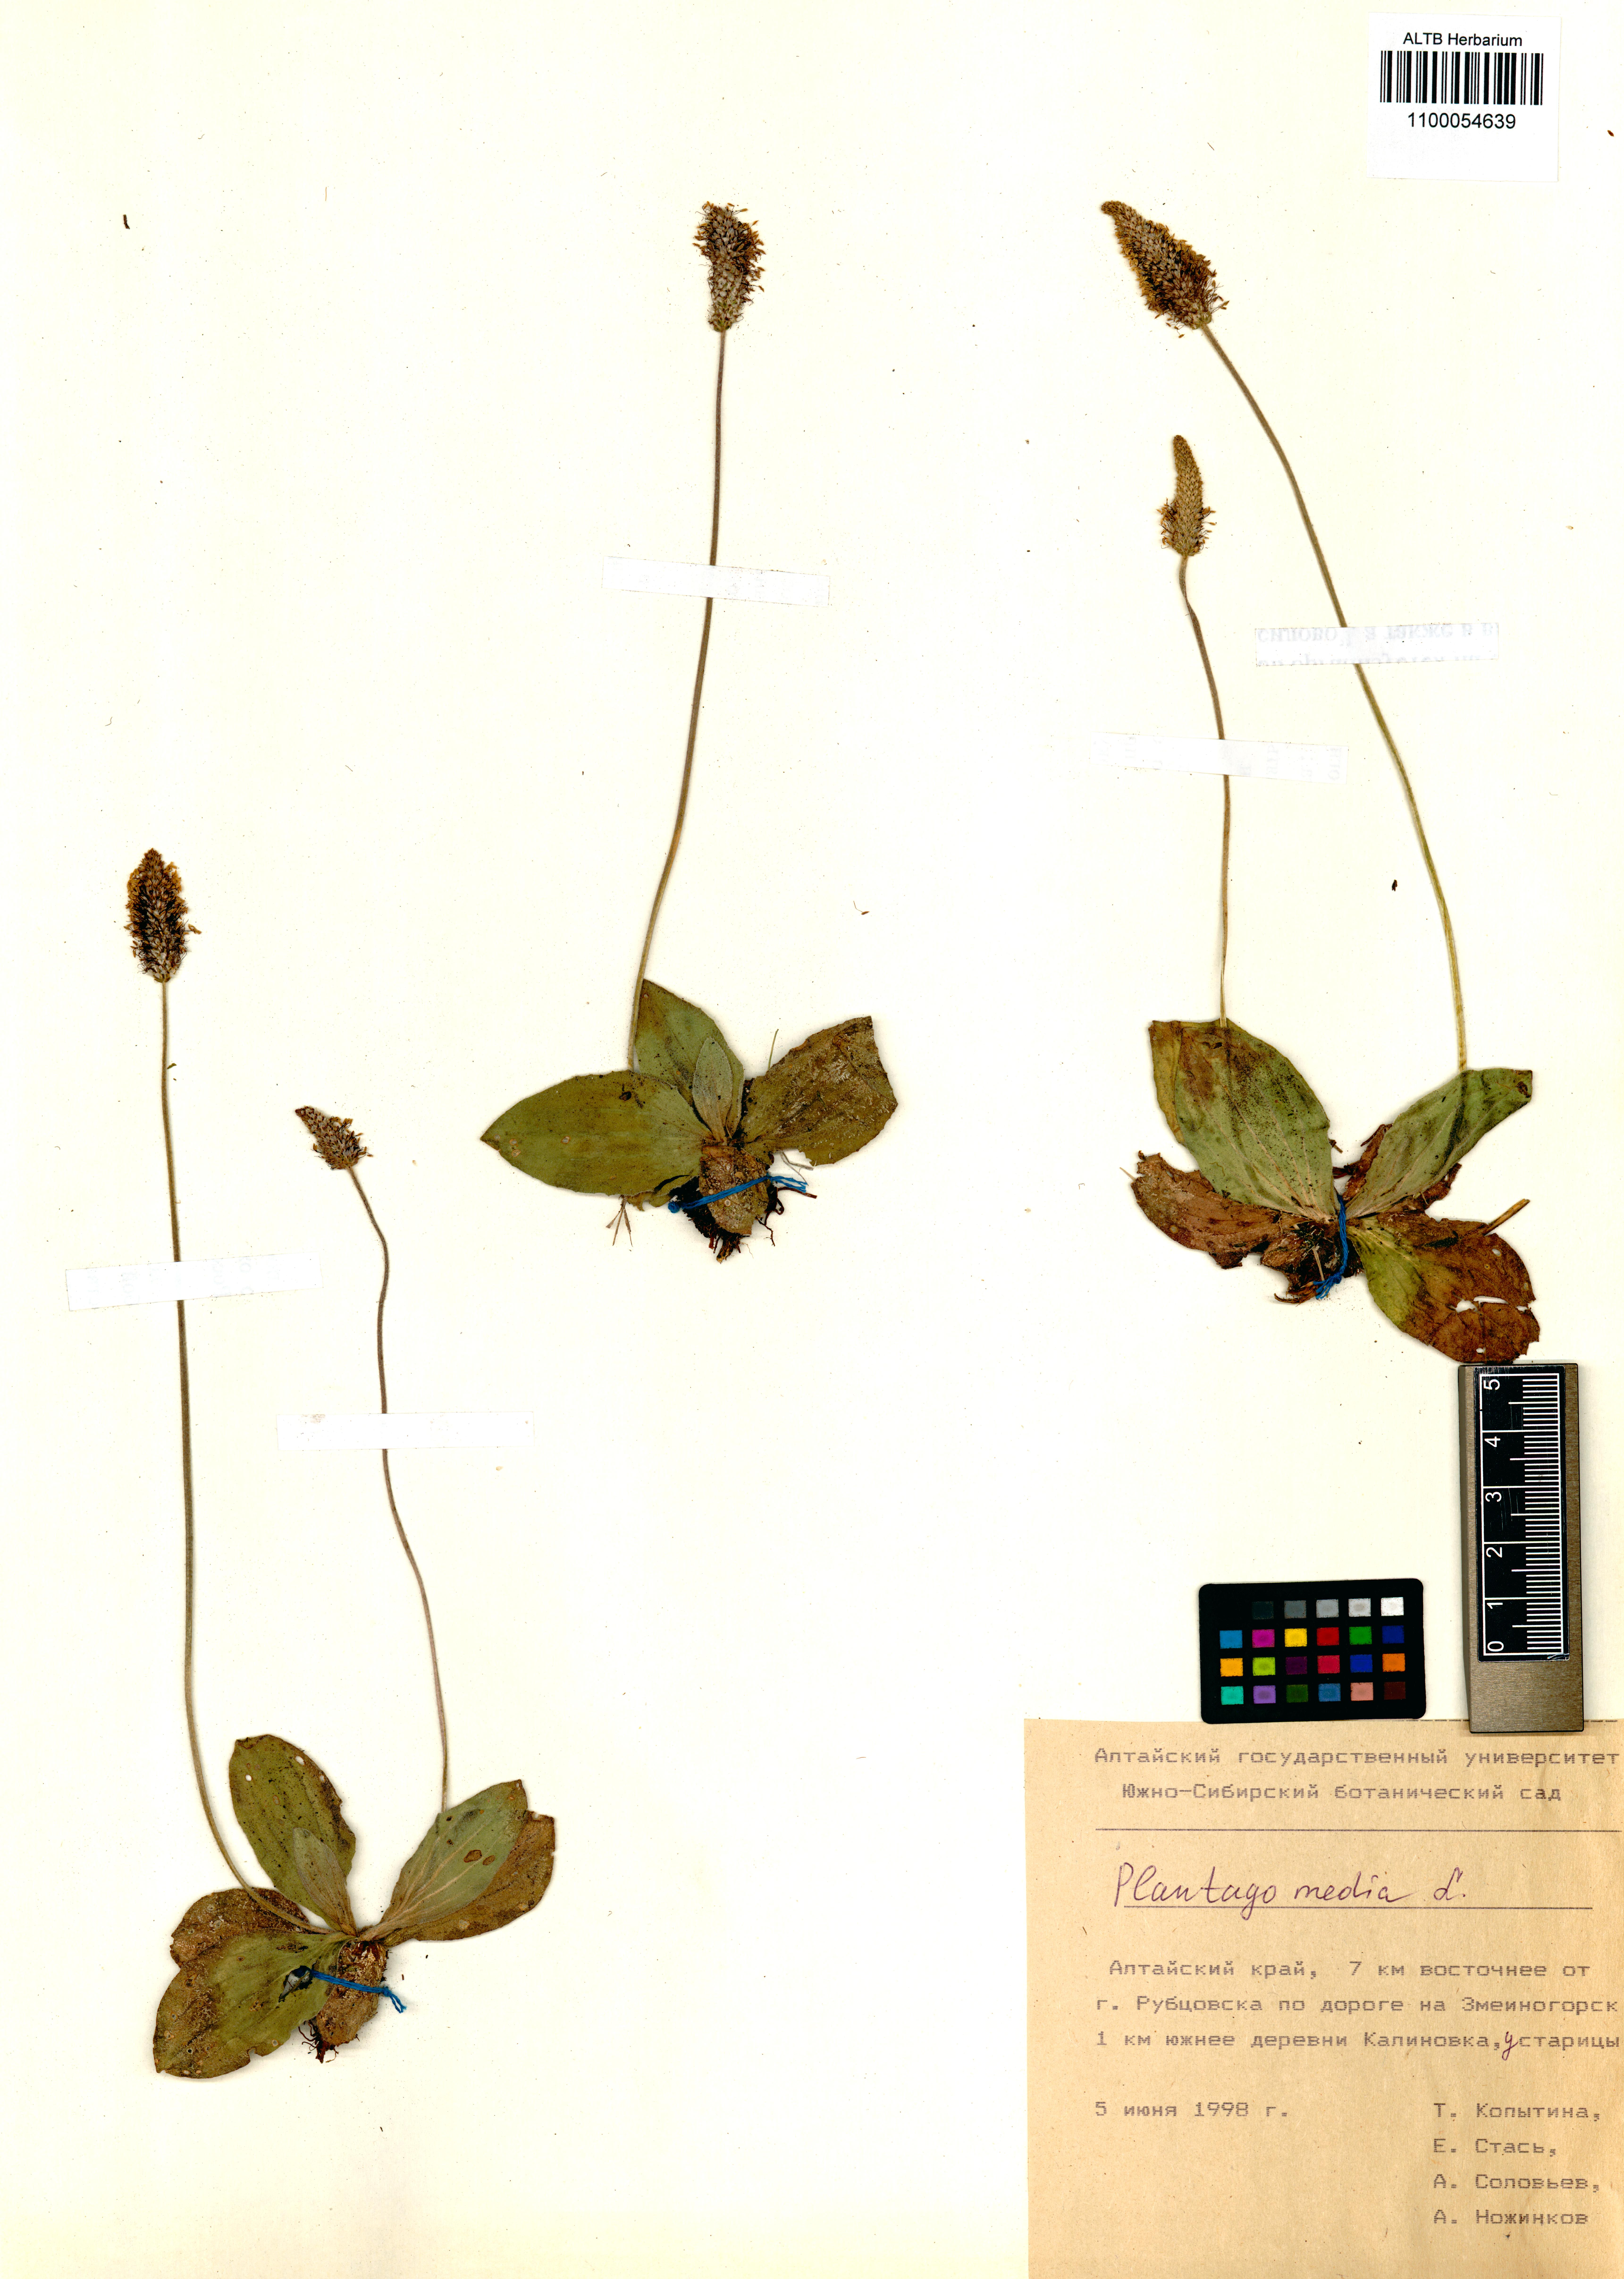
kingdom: Plantae
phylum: Tracheophyta
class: Magnoliopsida
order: Lamiales
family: Plantaginaceae
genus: Plantago
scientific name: Plantago media
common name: Hoary plantain
